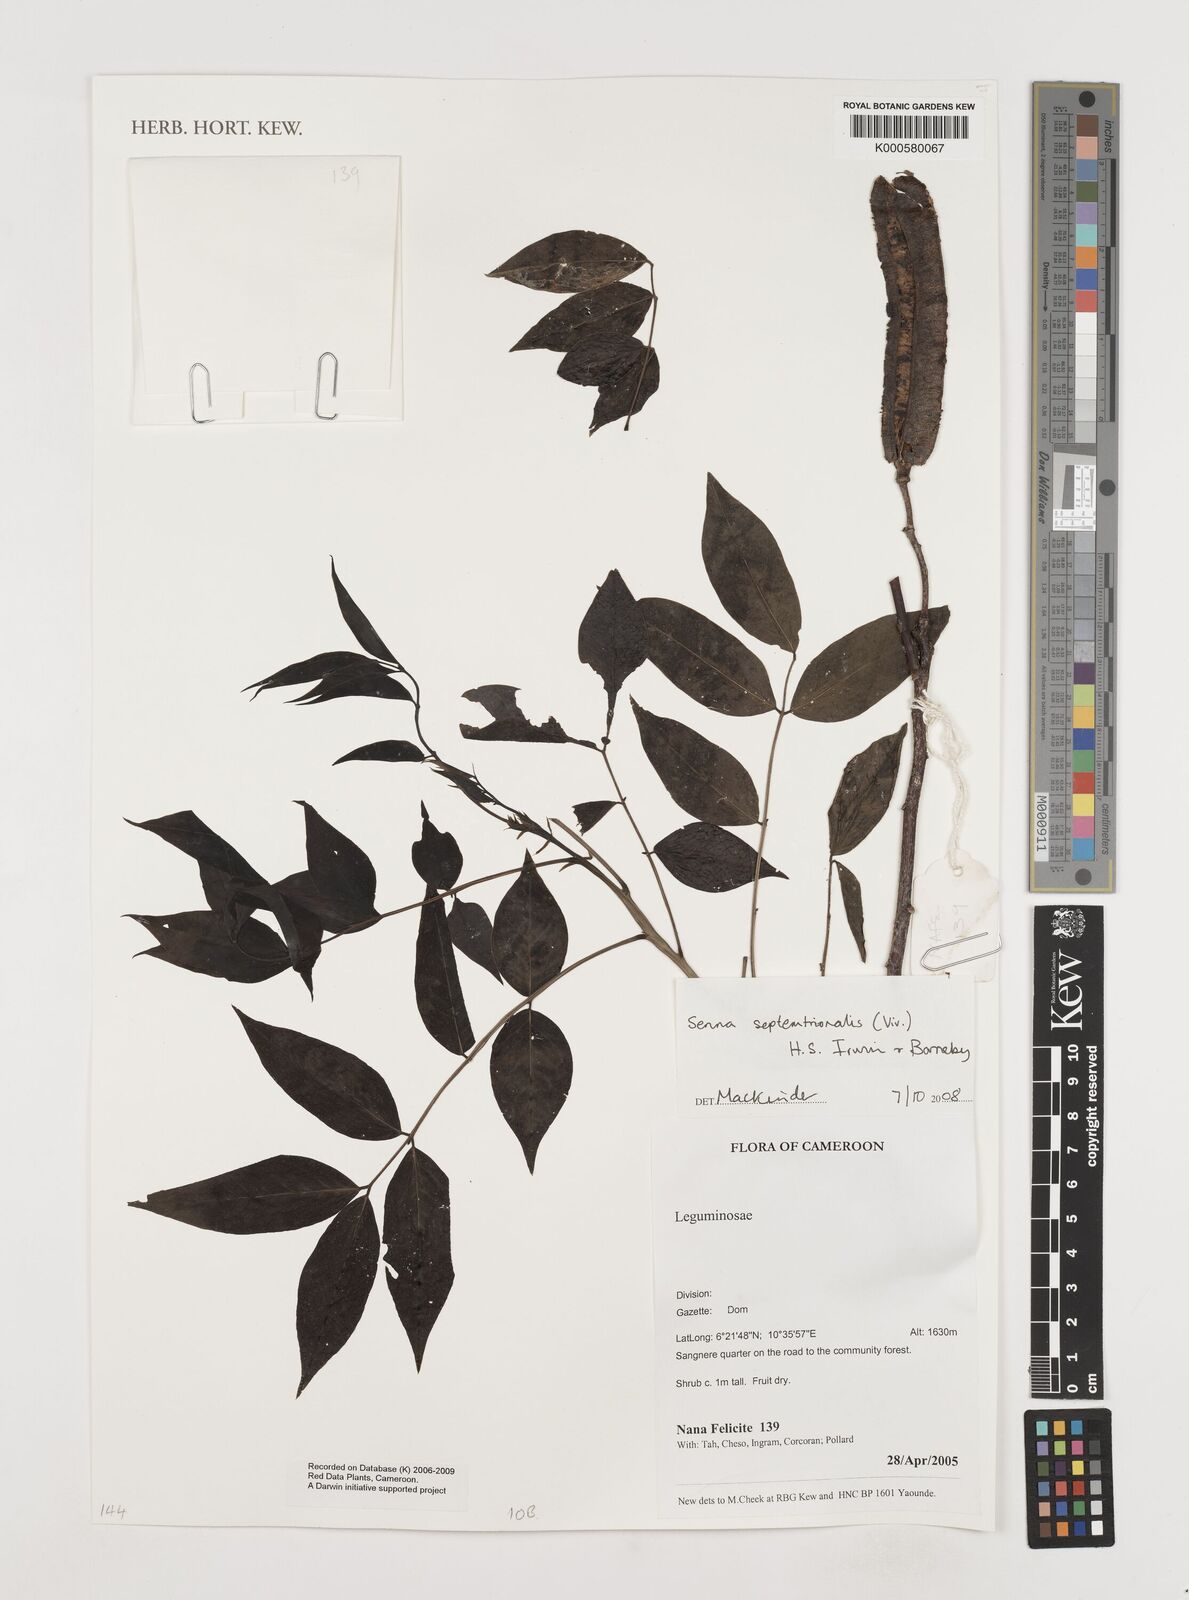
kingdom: Plantae
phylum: Tracheophyta
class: Magnoliopsida
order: Fabales
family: Fabaceae
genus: Senna
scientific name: Senna septemtrionalis
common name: Arsenic bush
